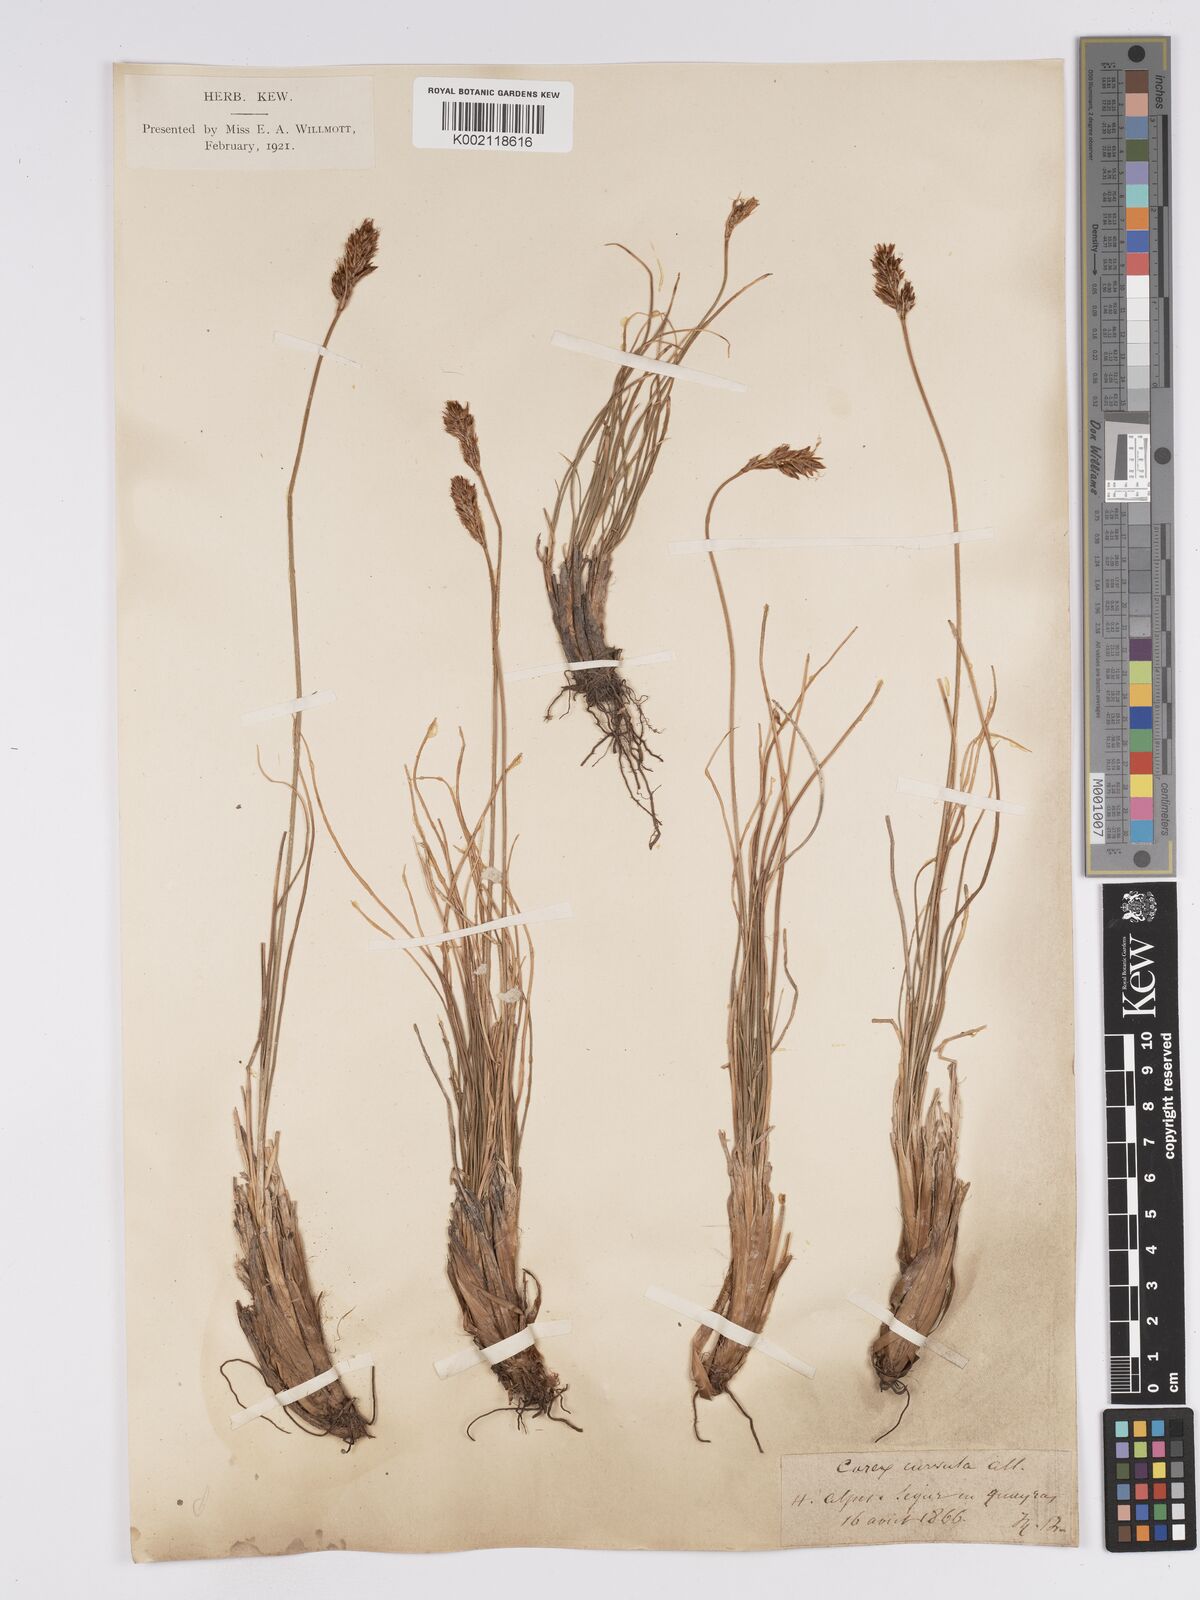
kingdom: Plantae
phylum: Tracheophyta
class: Liliopsida
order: Poales
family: Cyperaceae
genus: Carex
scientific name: Carex curvula
